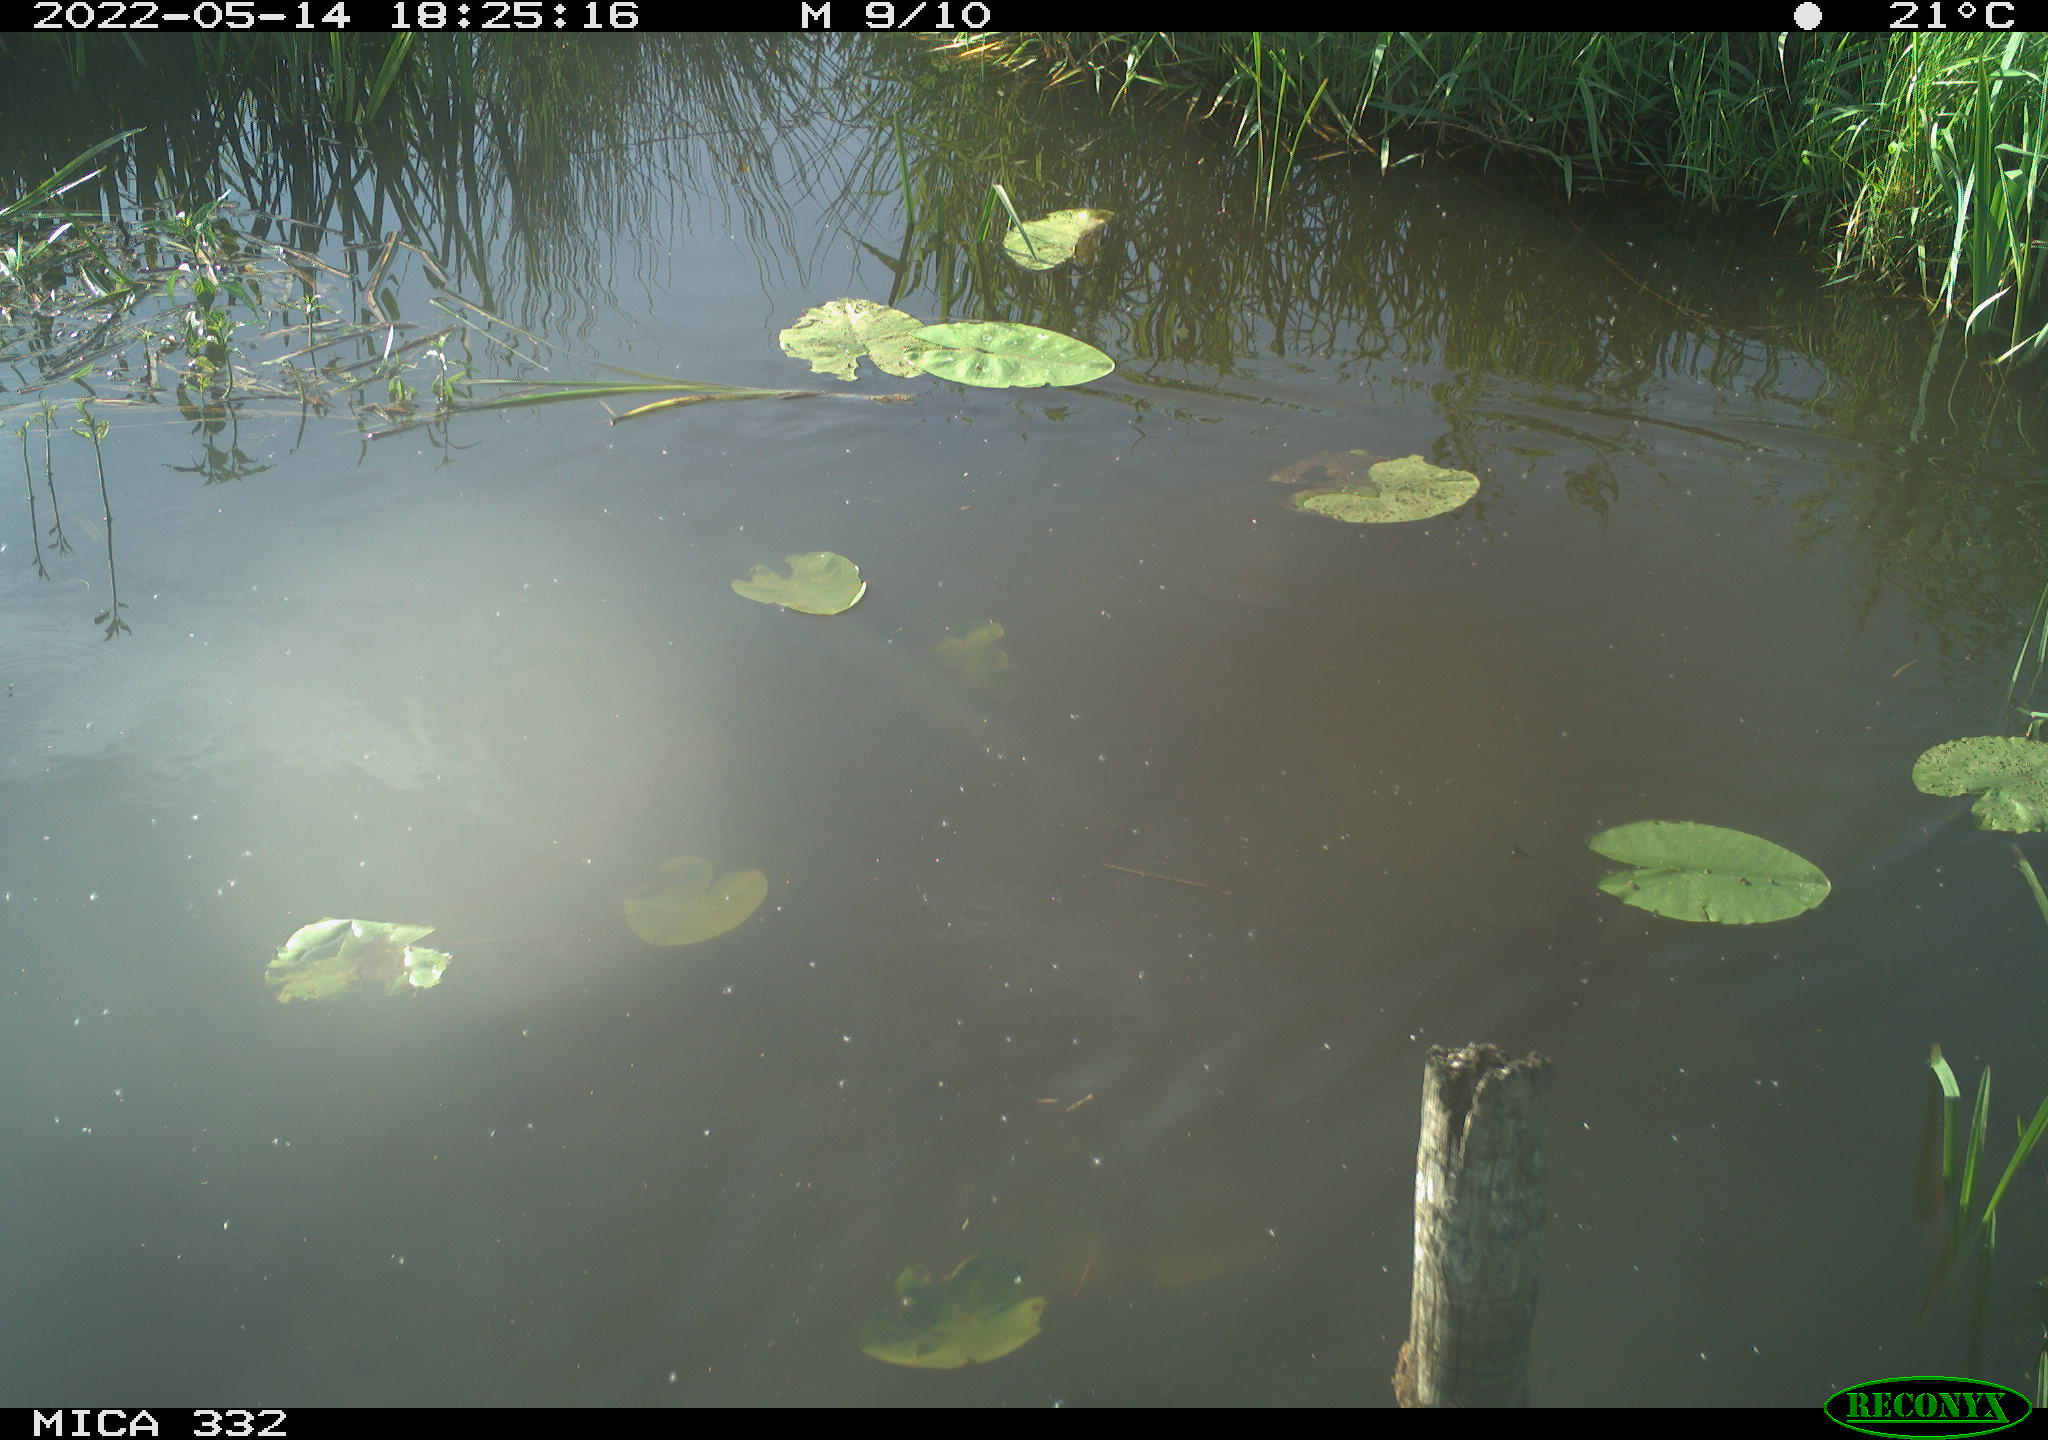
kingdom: Animalia
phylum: Chordata
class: Aves
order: Anseriformes
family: Anatidae
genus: Anas
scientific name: Anas platyrhynchos
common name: Mallard
